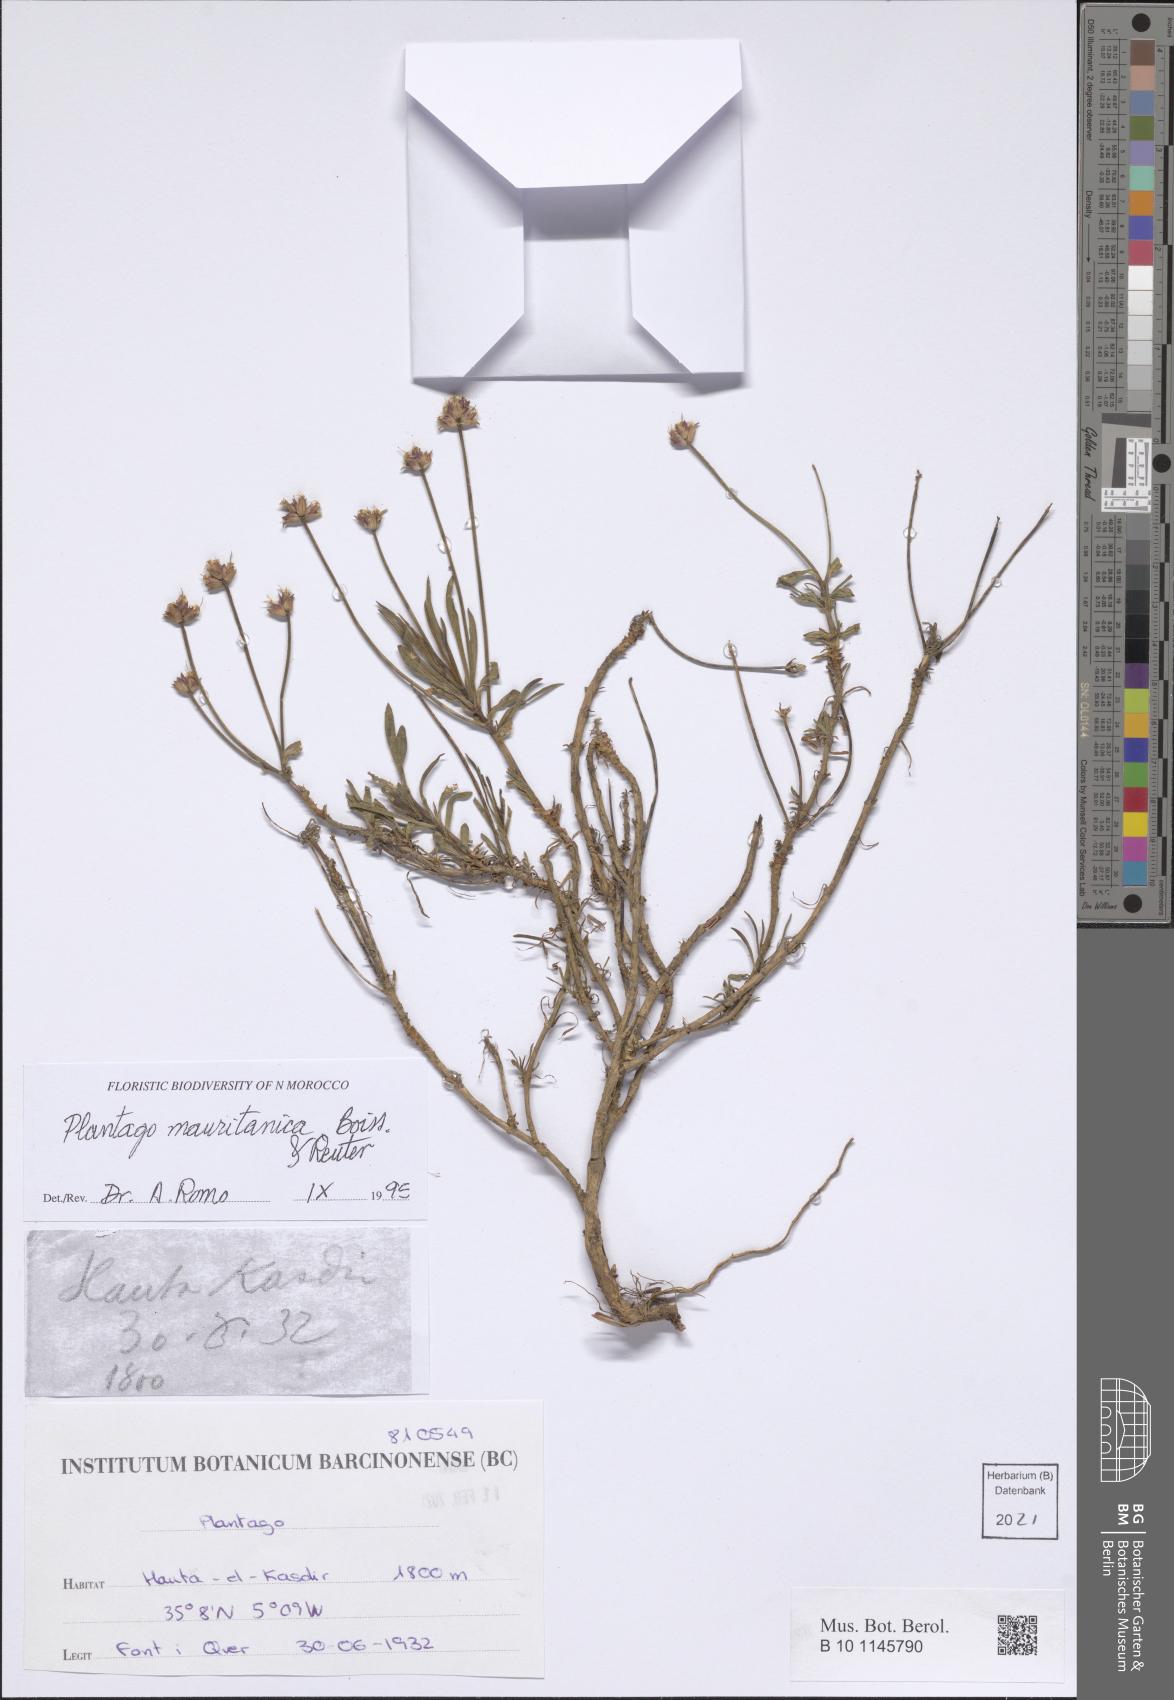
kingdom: Plantae
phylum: Tracheophyta
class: Magnoliopsida
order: Lamiales
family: Plantaginaceae
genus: Plantago
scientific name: Plantago mauritanica
